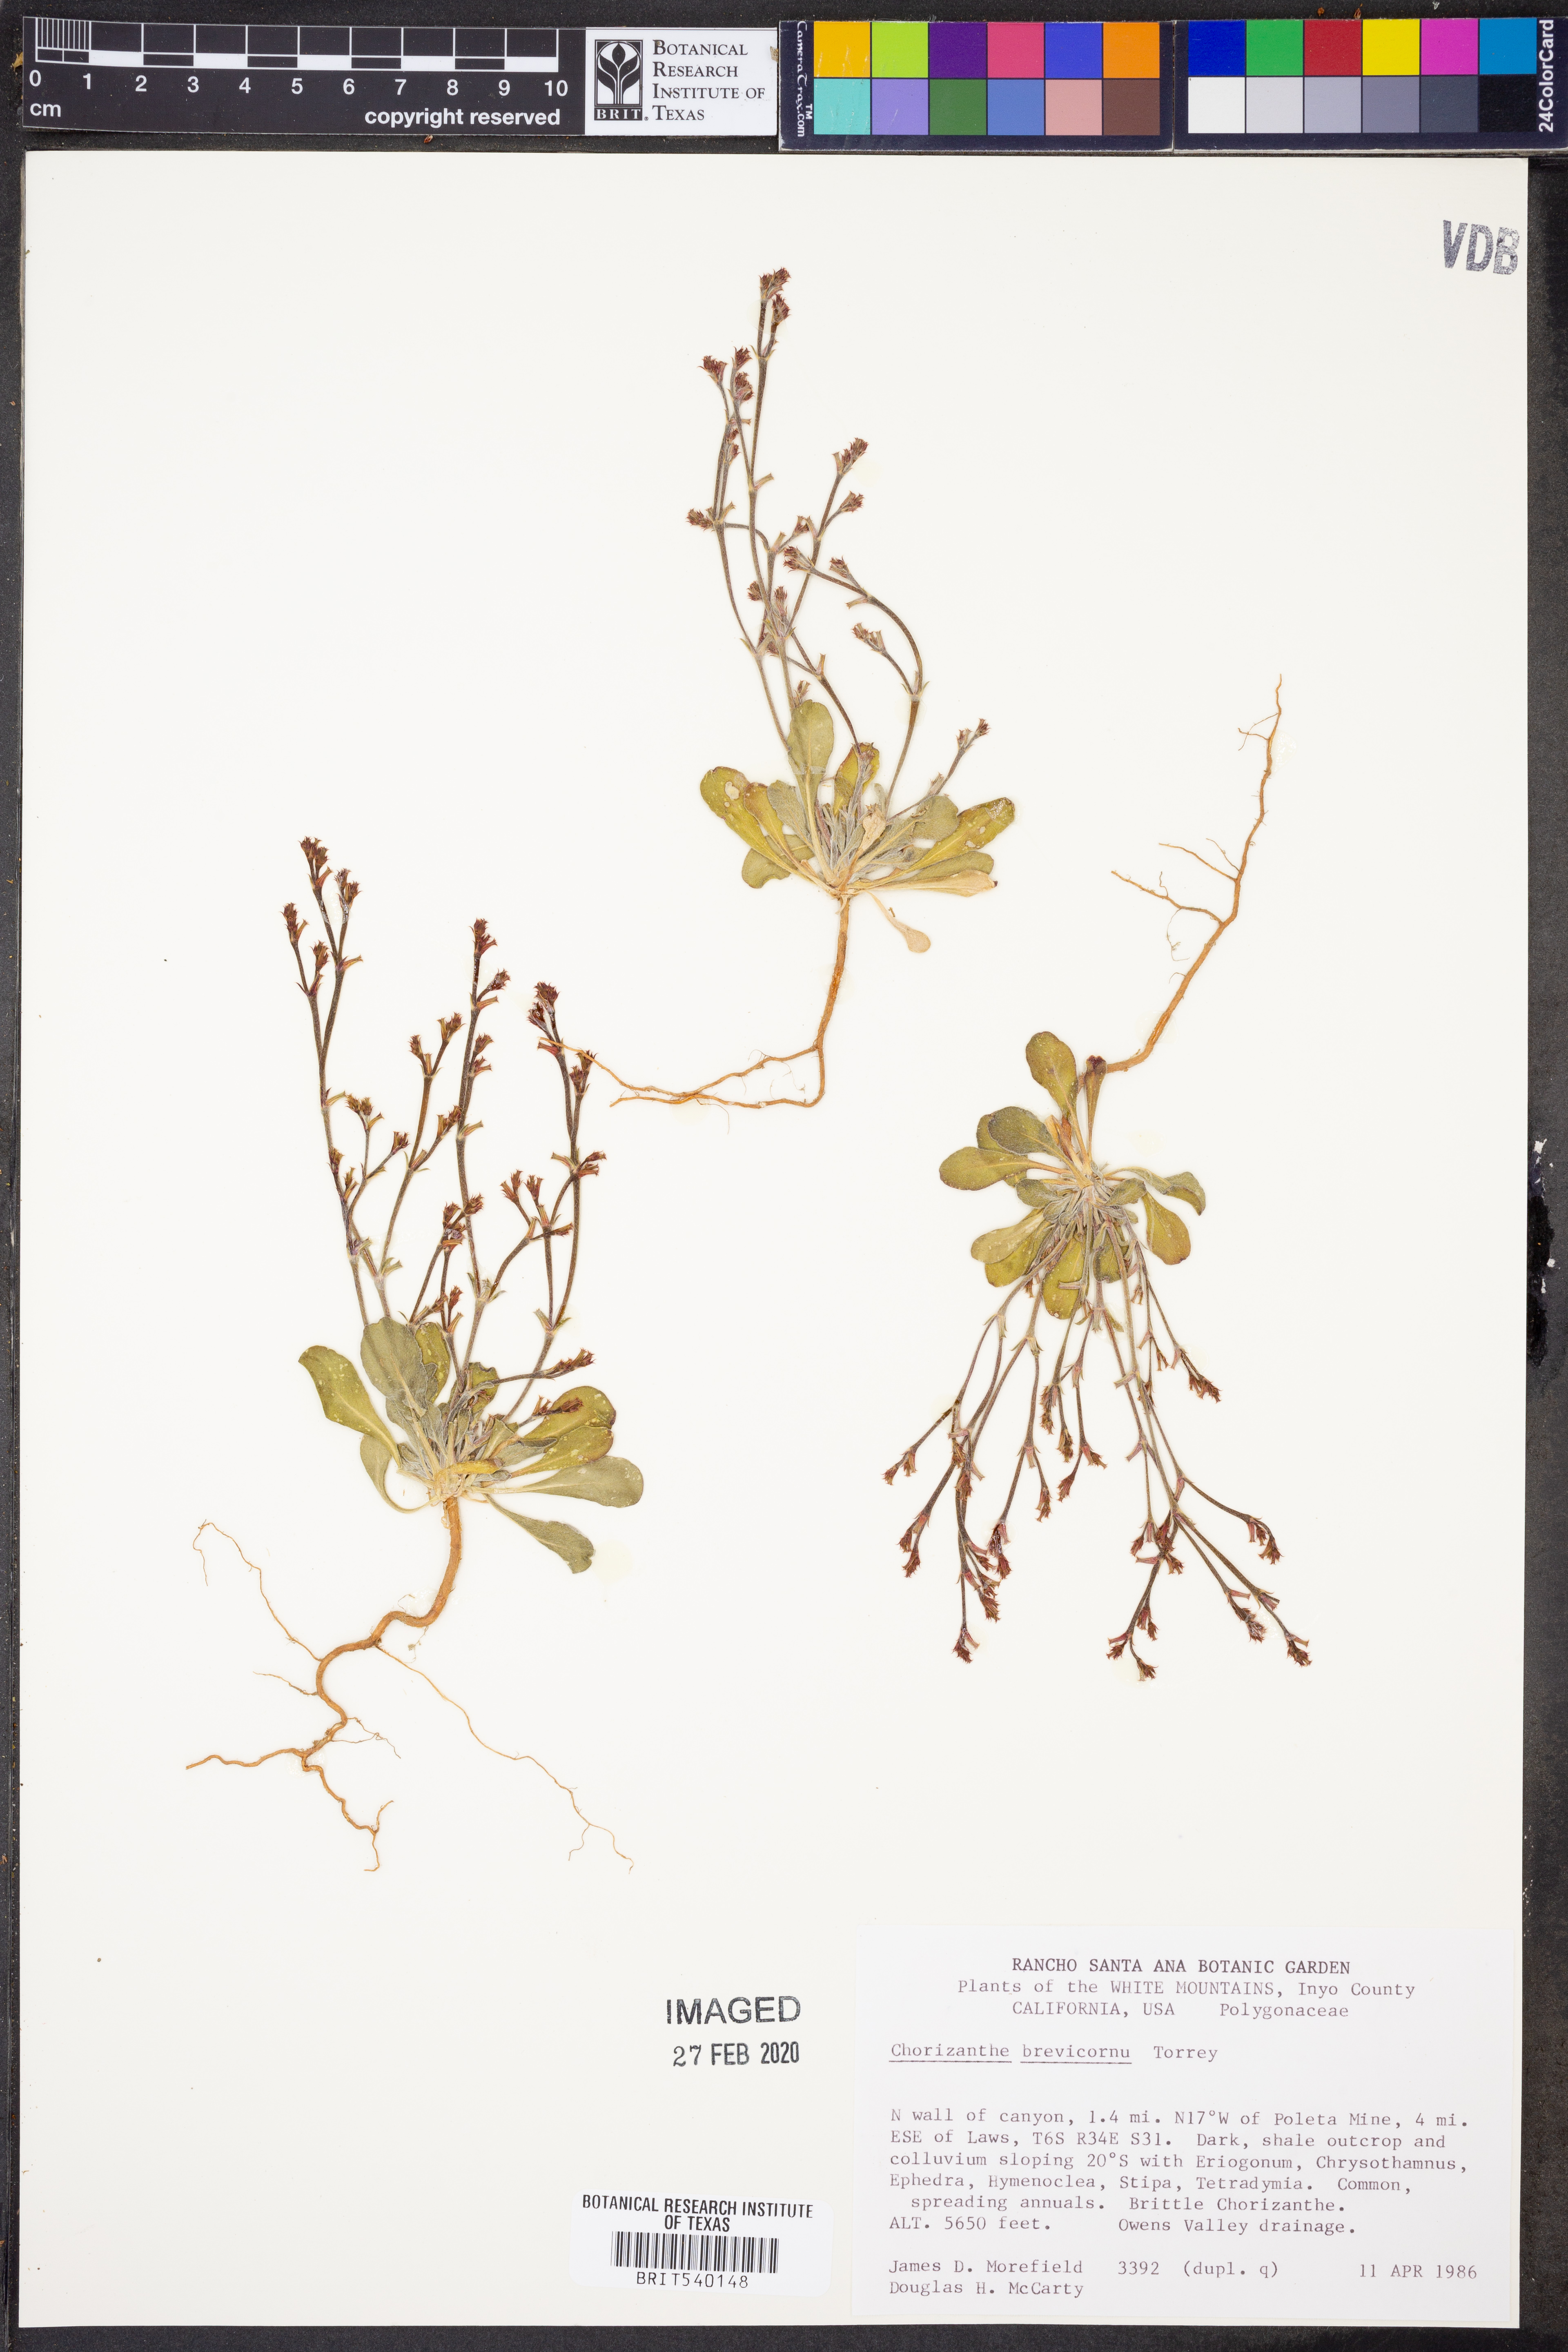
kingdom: Plantae
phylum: Tracheophyta
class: Magnoliopsida
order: Caryophyllales
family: Polygonaceae
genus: Chorizanthe
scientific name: Chorizanthe brevicornu
